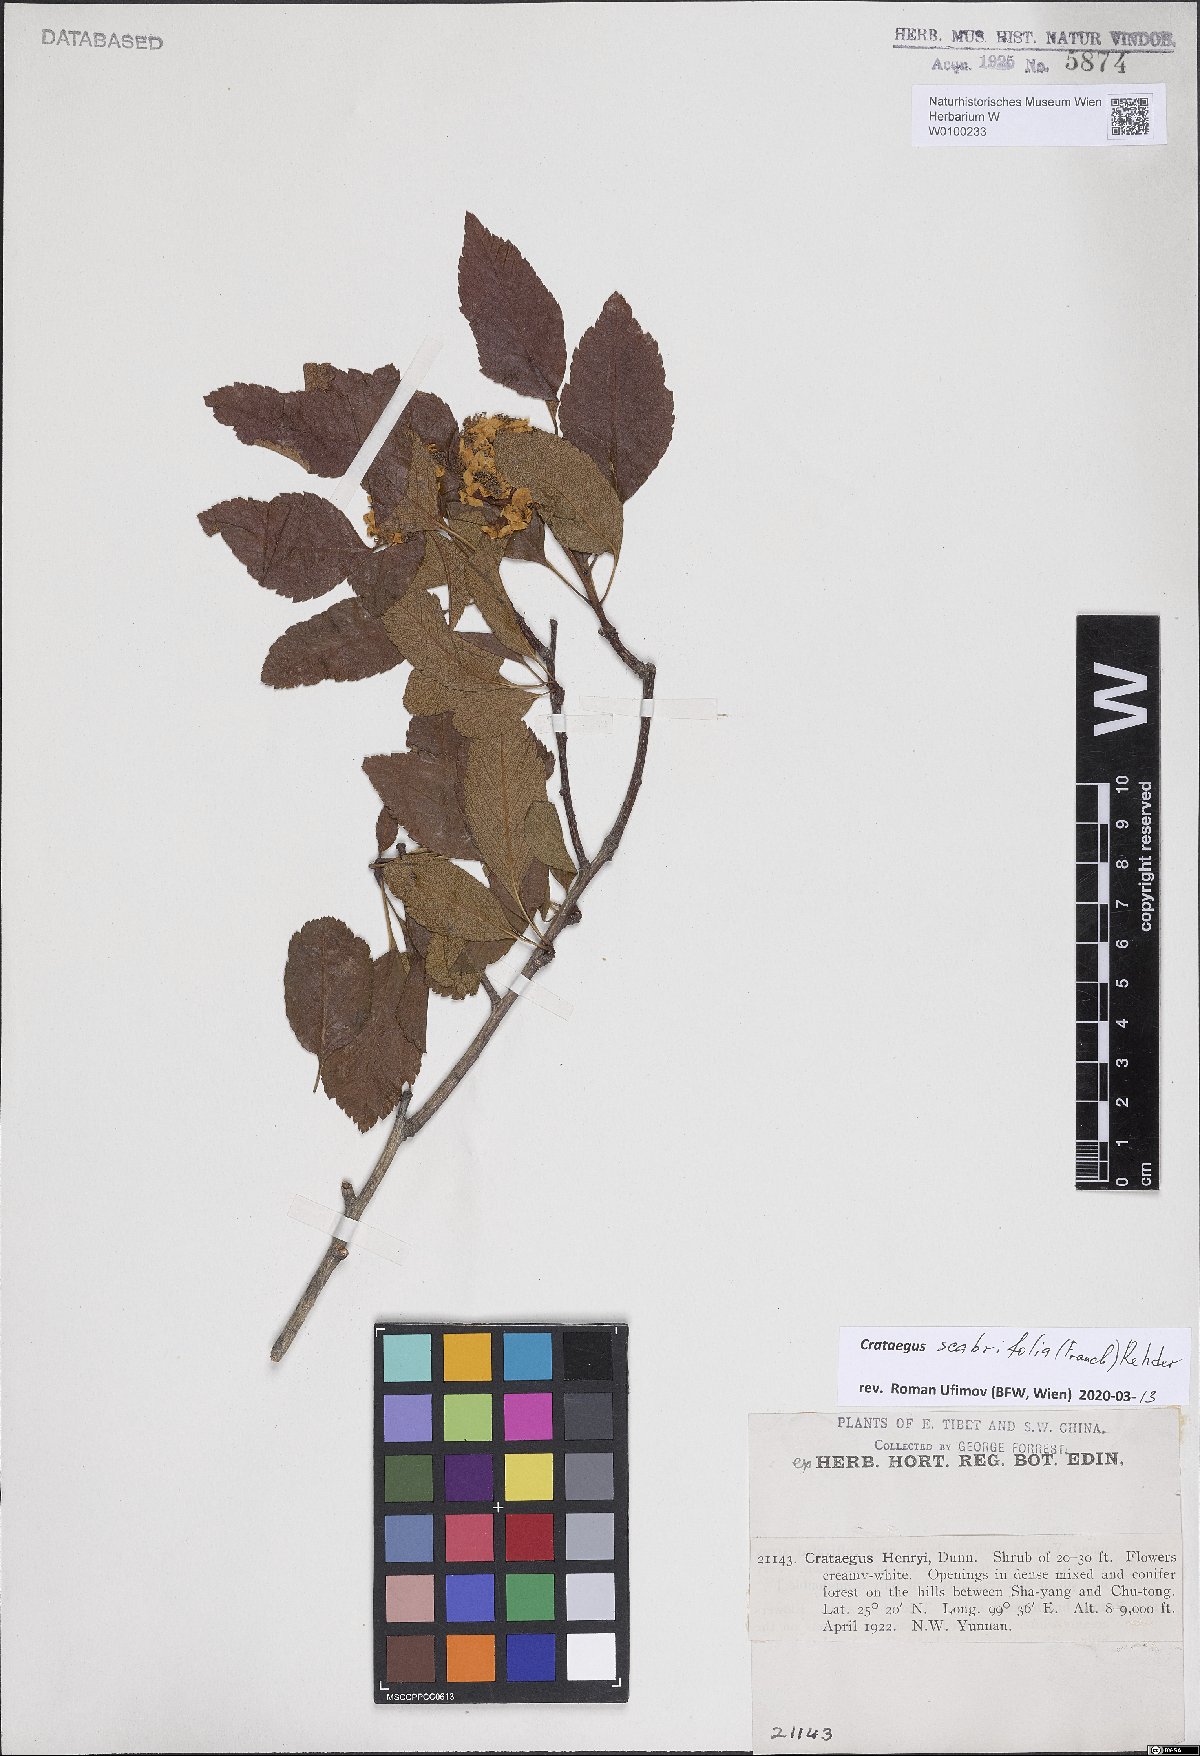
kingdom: Plantae
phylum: Tracheophyta
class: Magnoliopsida
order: Rosales
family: Rosaceae
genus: Crataegus
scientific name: Crataegus scabrifolia
